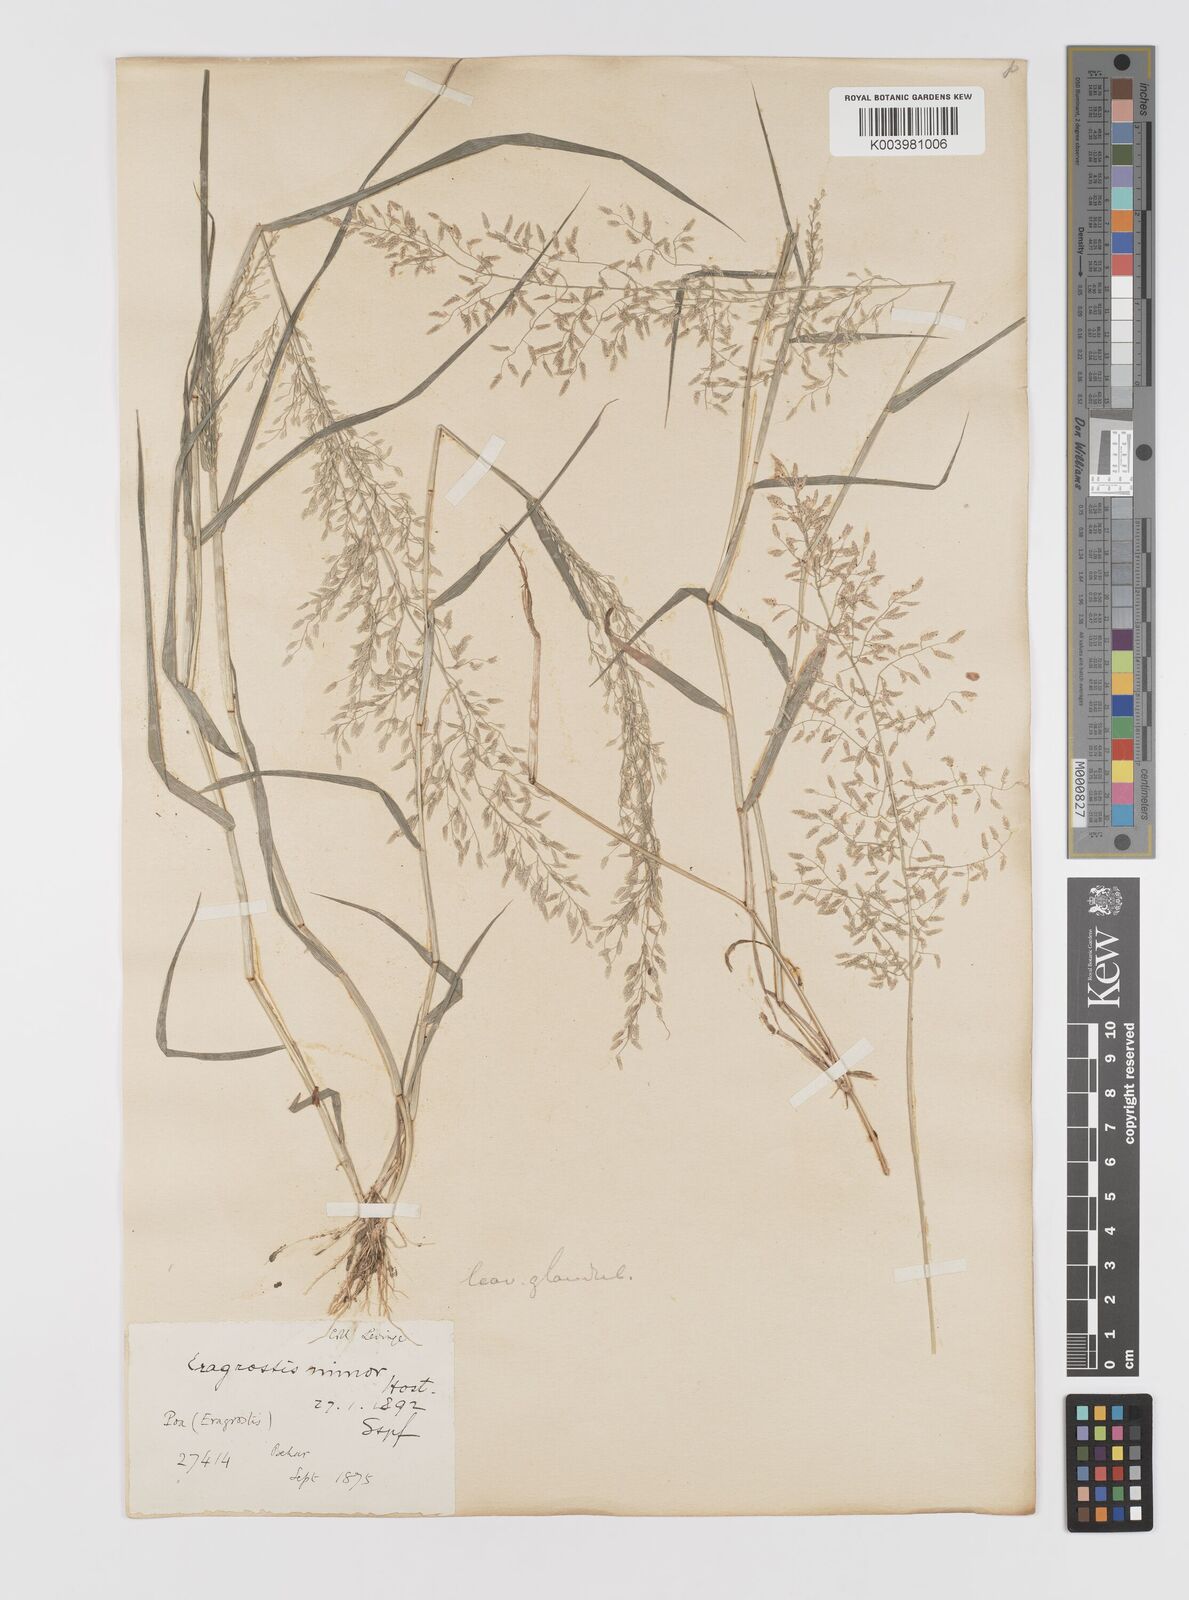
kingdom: Plantae
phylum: Tracheophyta
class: Liliopsida
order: Poales
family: Poaceae
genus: Eragrostis
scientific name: Eragrostis minor
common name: Small love-grass
